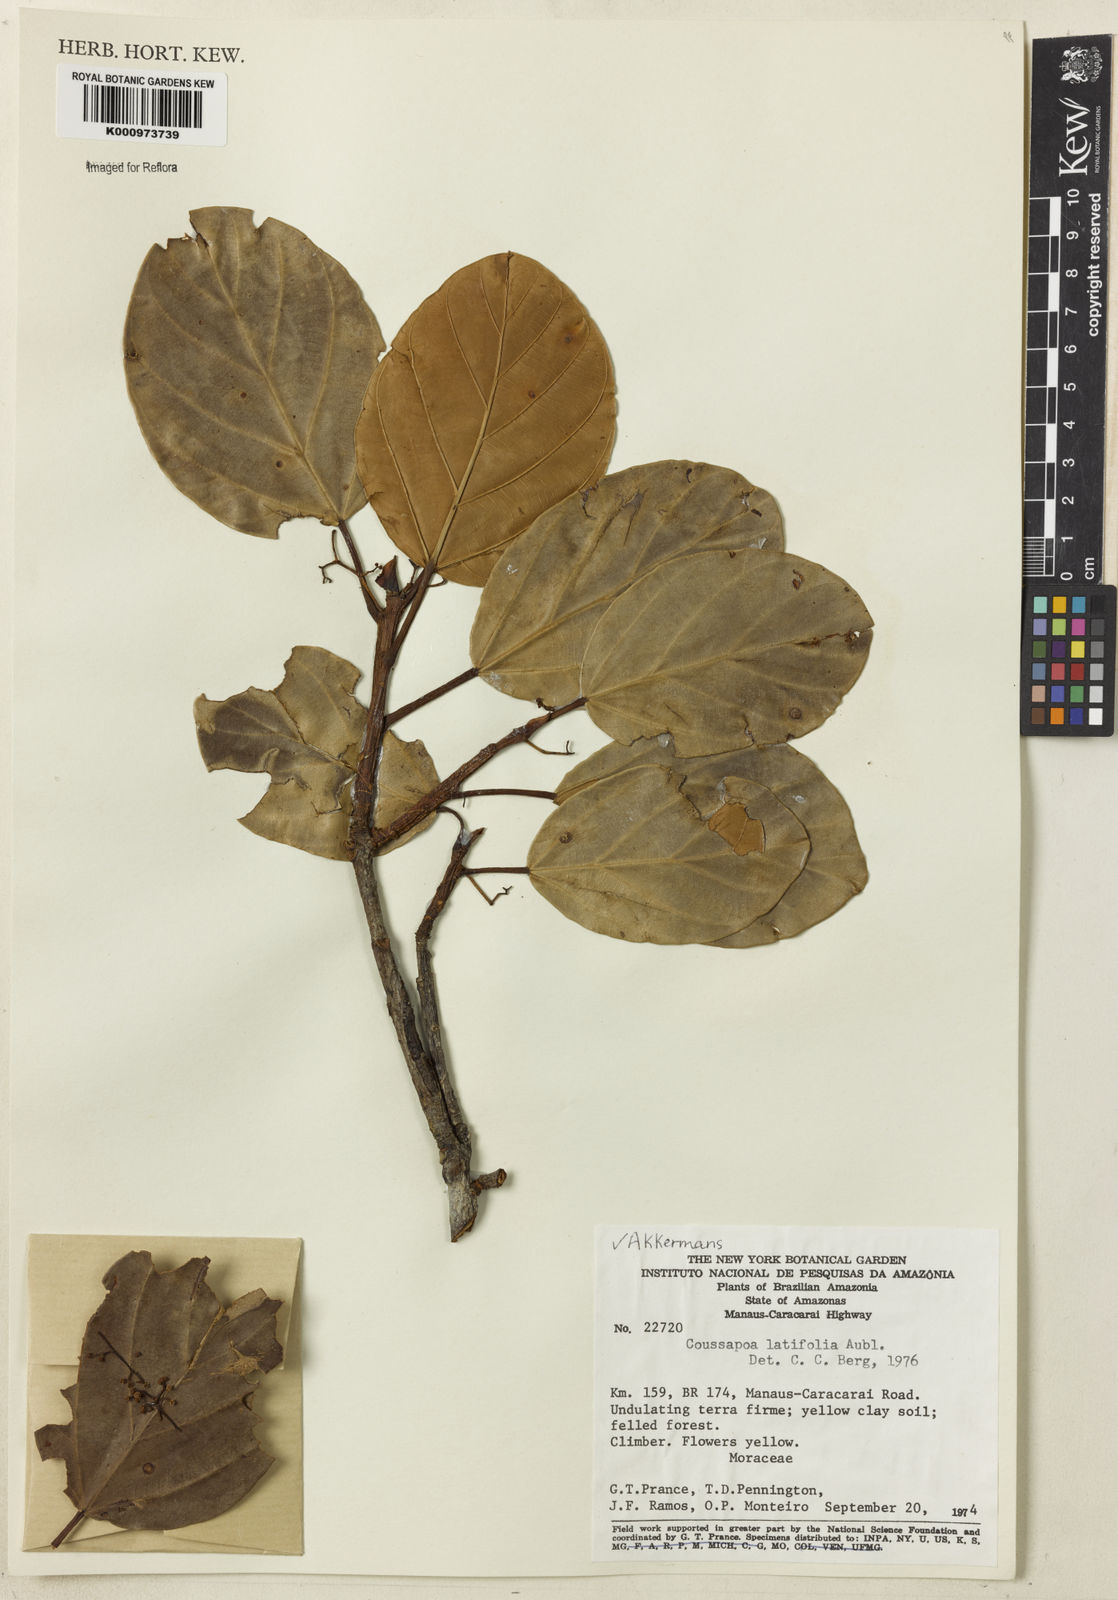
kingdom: Plantae
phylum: Tracheophyta
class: Magnoliopsida
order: Rosales
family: Urticaceae
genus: Coussapoa
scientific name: Coussapoa
